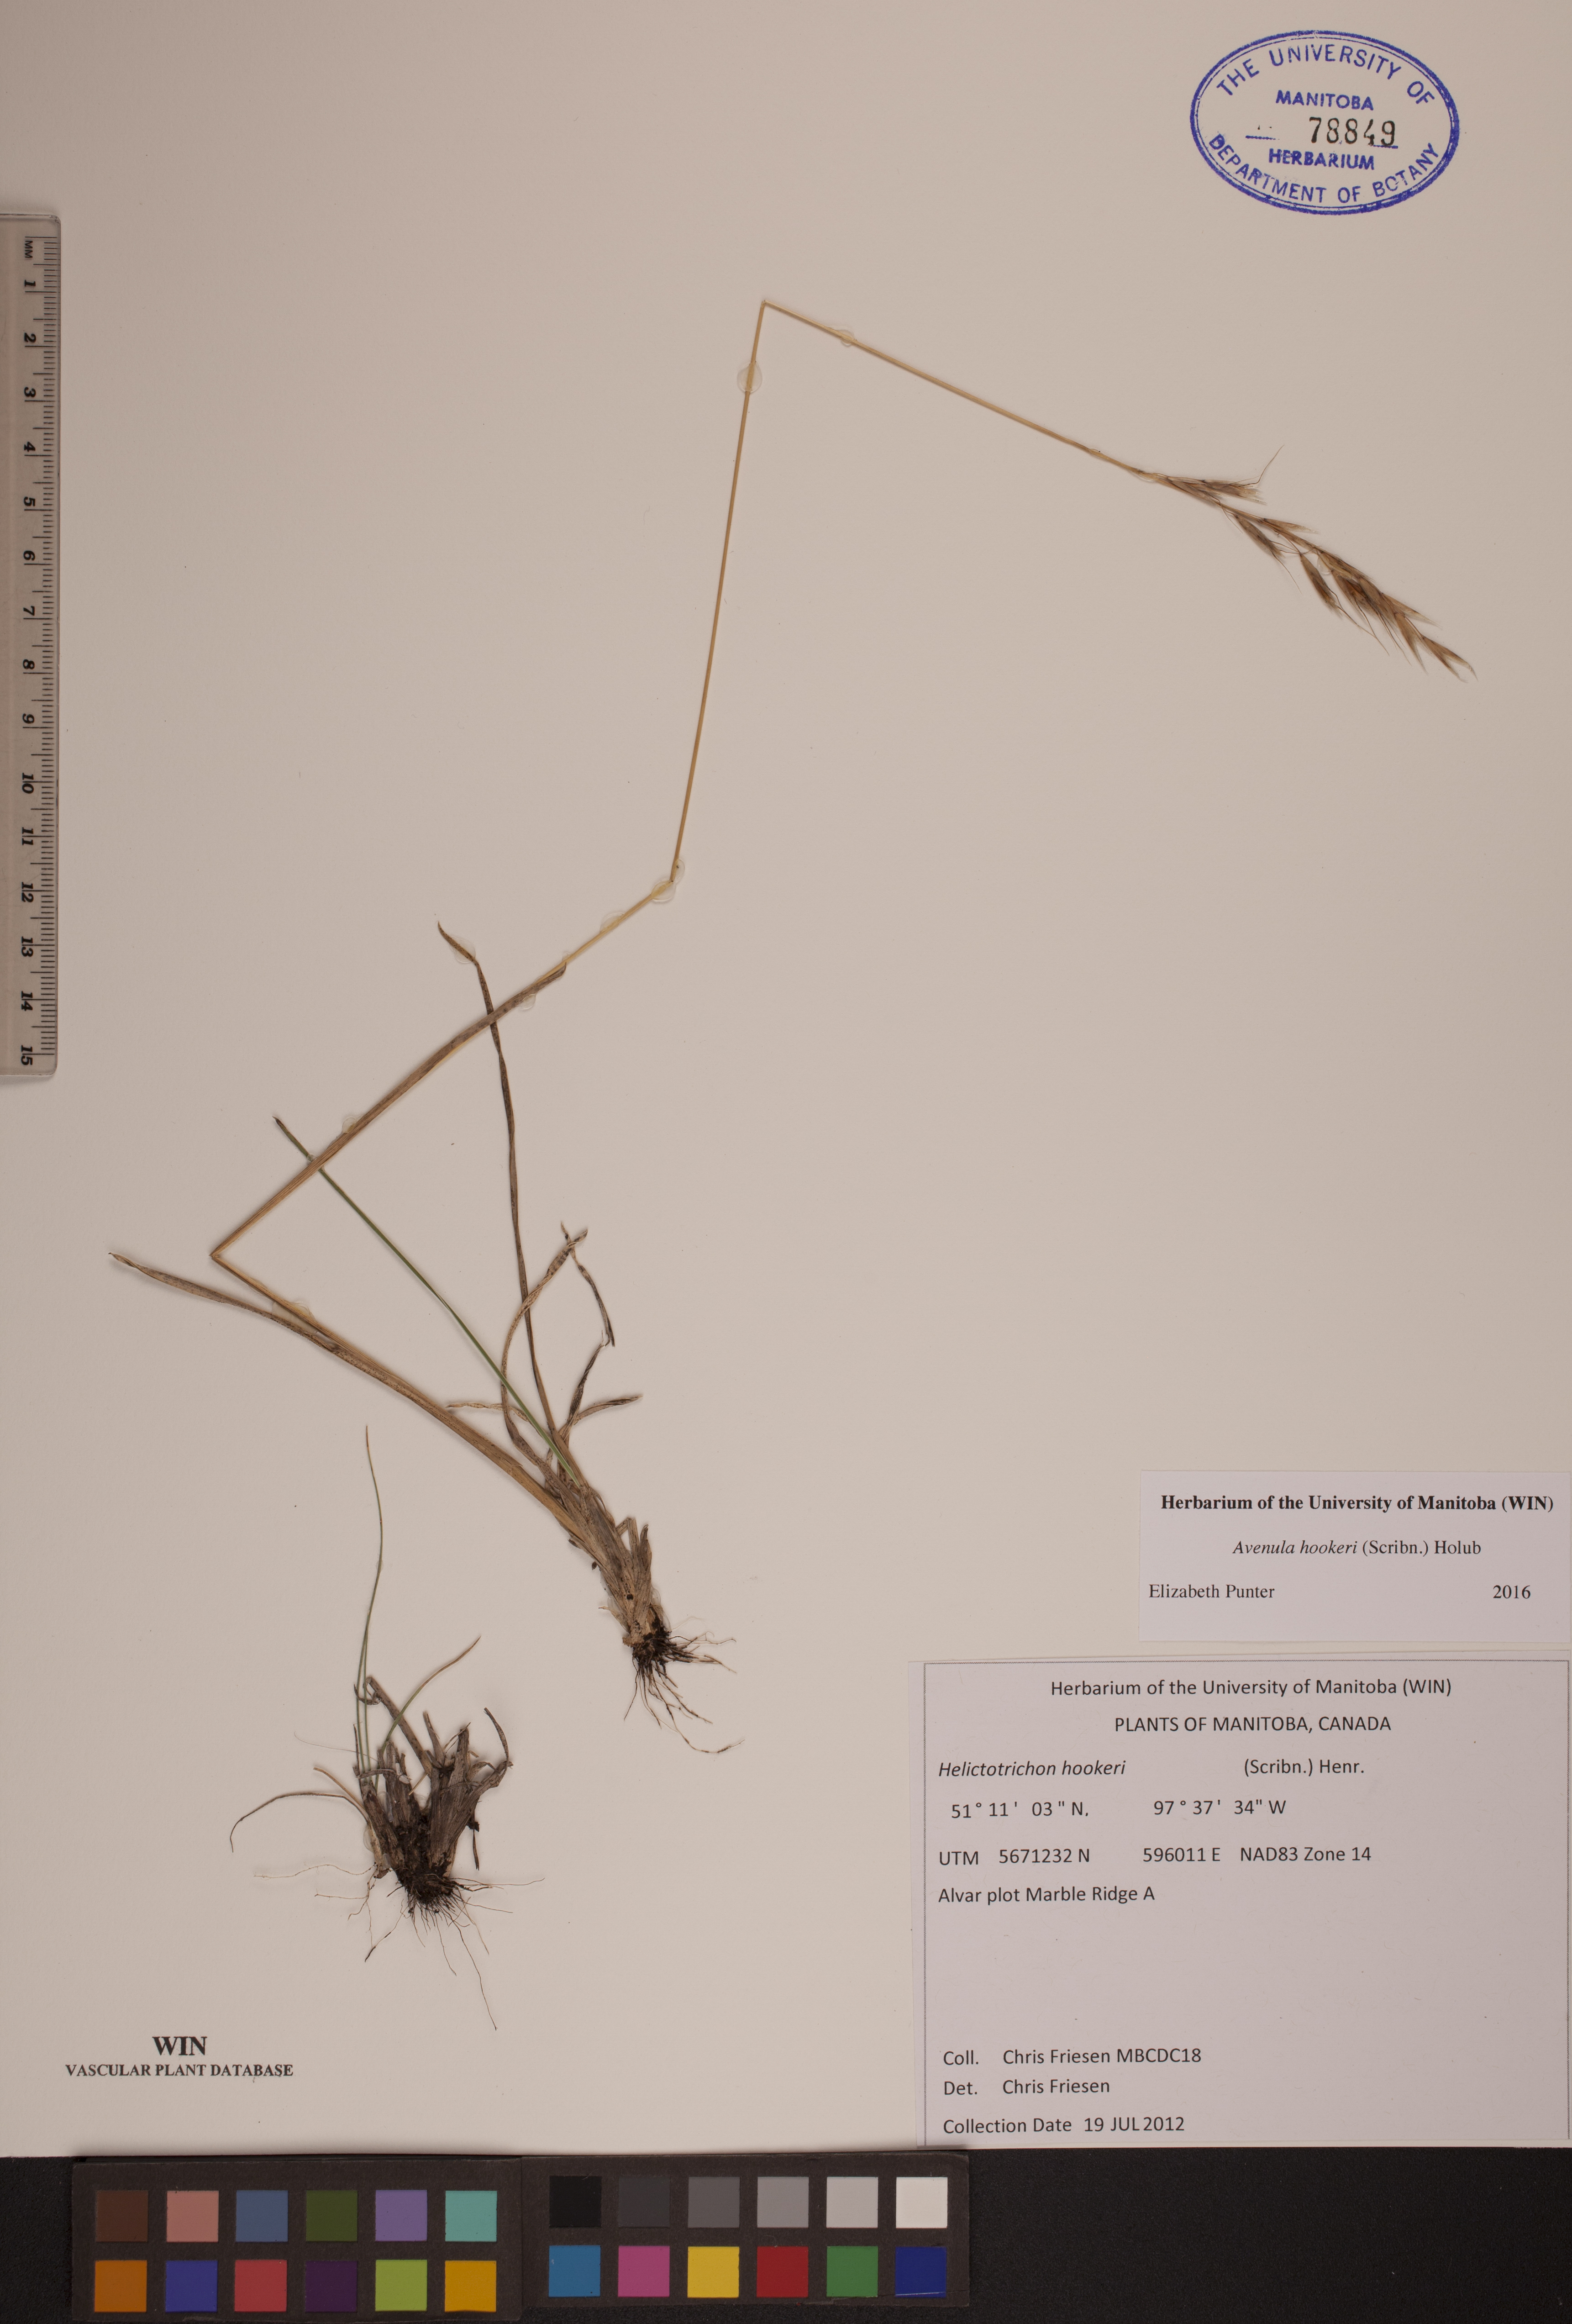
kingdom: Plantae
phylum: Tracheophyta
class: Liliopsida
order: Poales
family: Poaceae
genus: Helictochloa
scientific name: Helictochloa hookeri
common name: Hooker's alpine oatgrass
